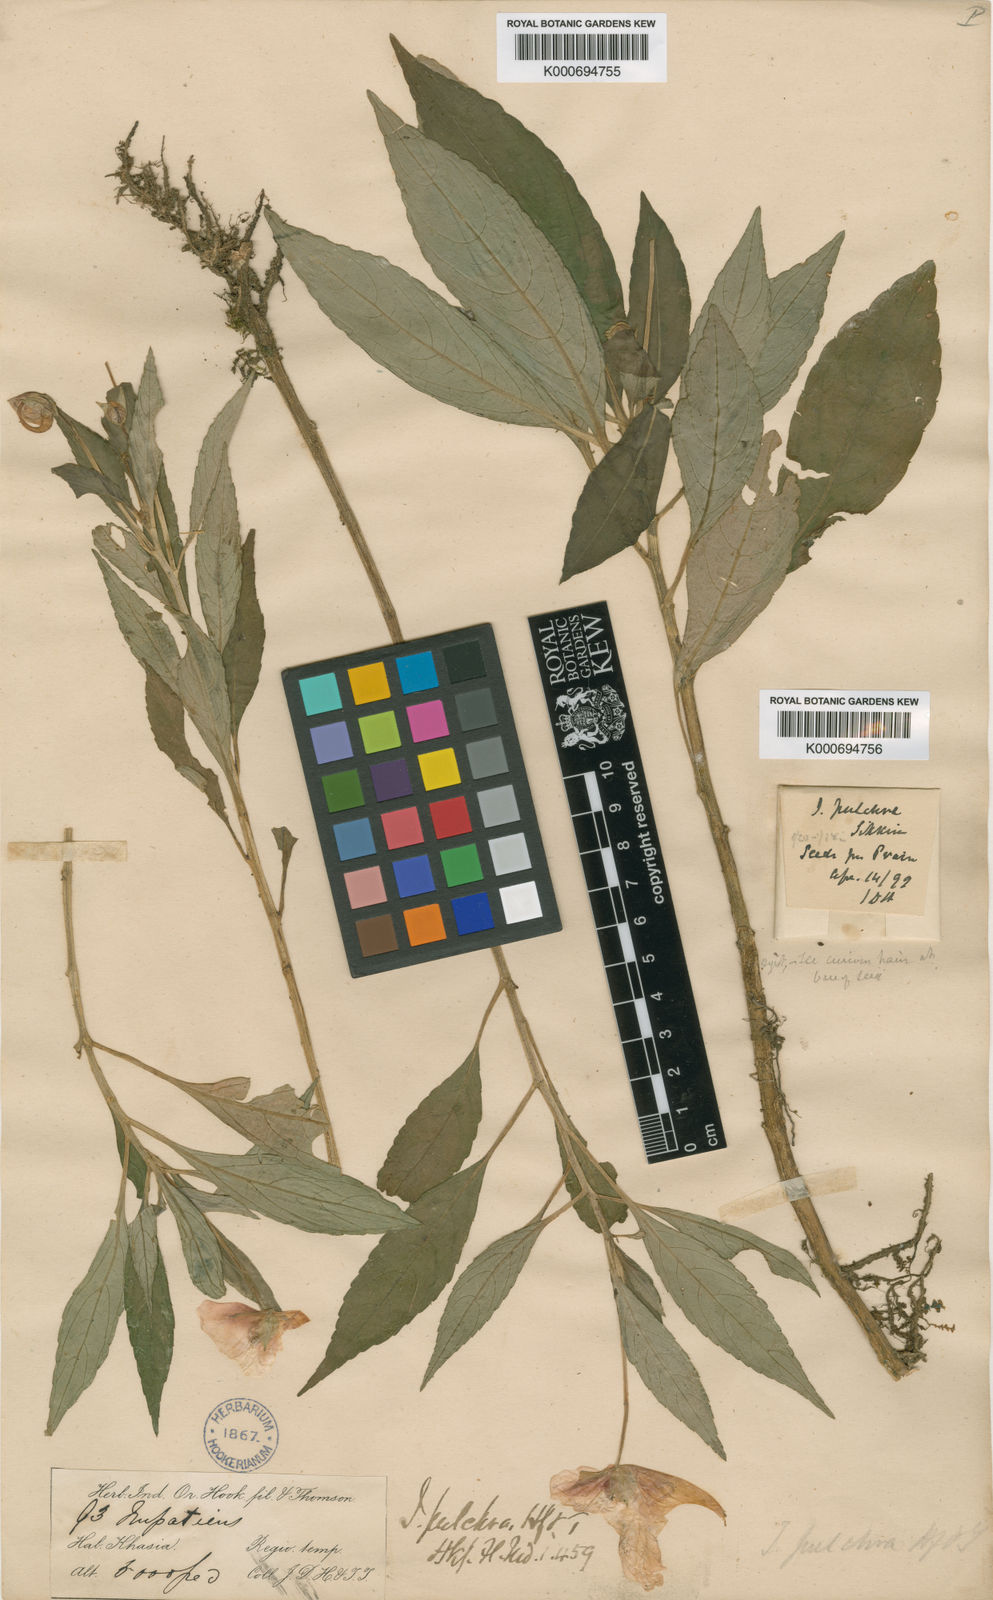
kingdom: Plantae
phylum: Tracheophyta
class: Magnoliopsida
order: Ericales
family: Balsaminaceae
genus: Impatiens
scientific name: Impatiens pulchra
